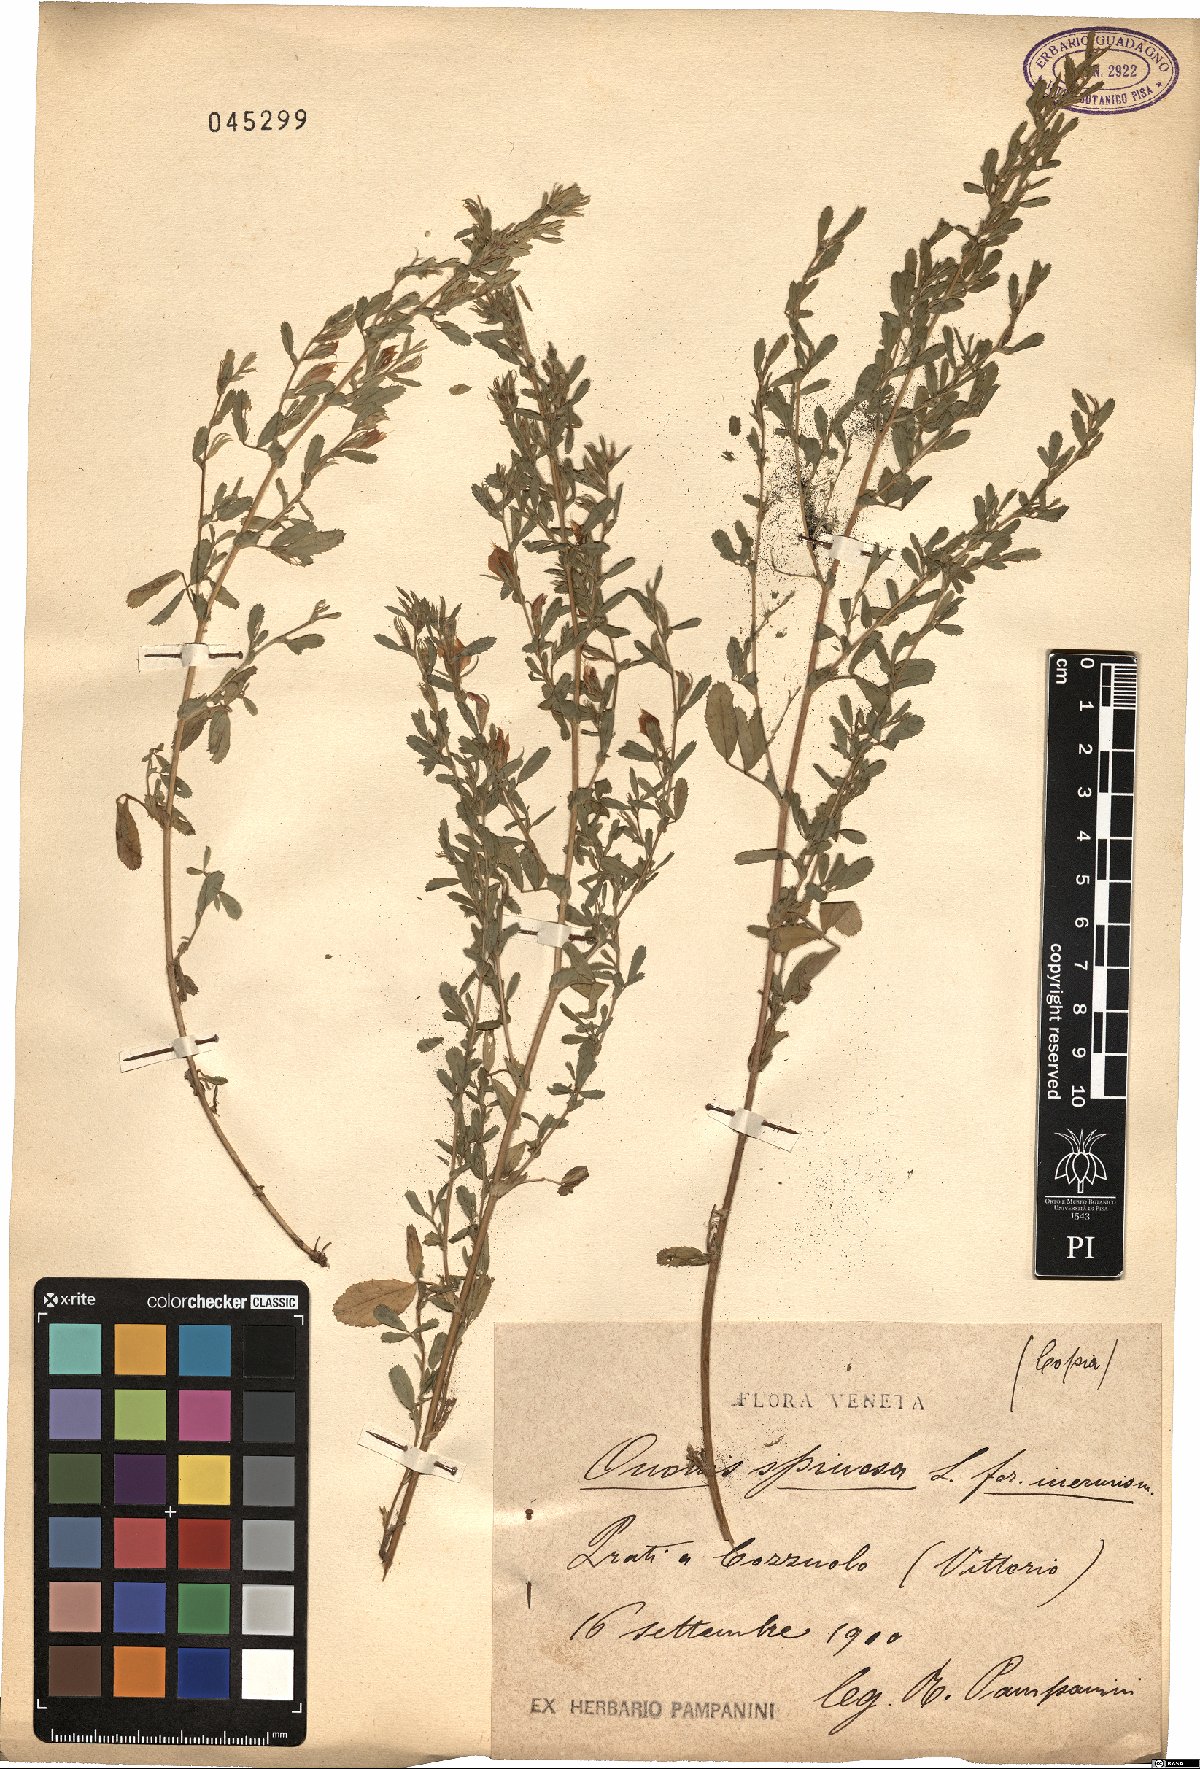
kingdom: Plantae
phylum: Tracheophyta
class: Magnoliopsida
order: Fabales
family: Fabaceae
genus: Ononis
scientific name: Ononis spinosa
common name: Spiny restharrow
